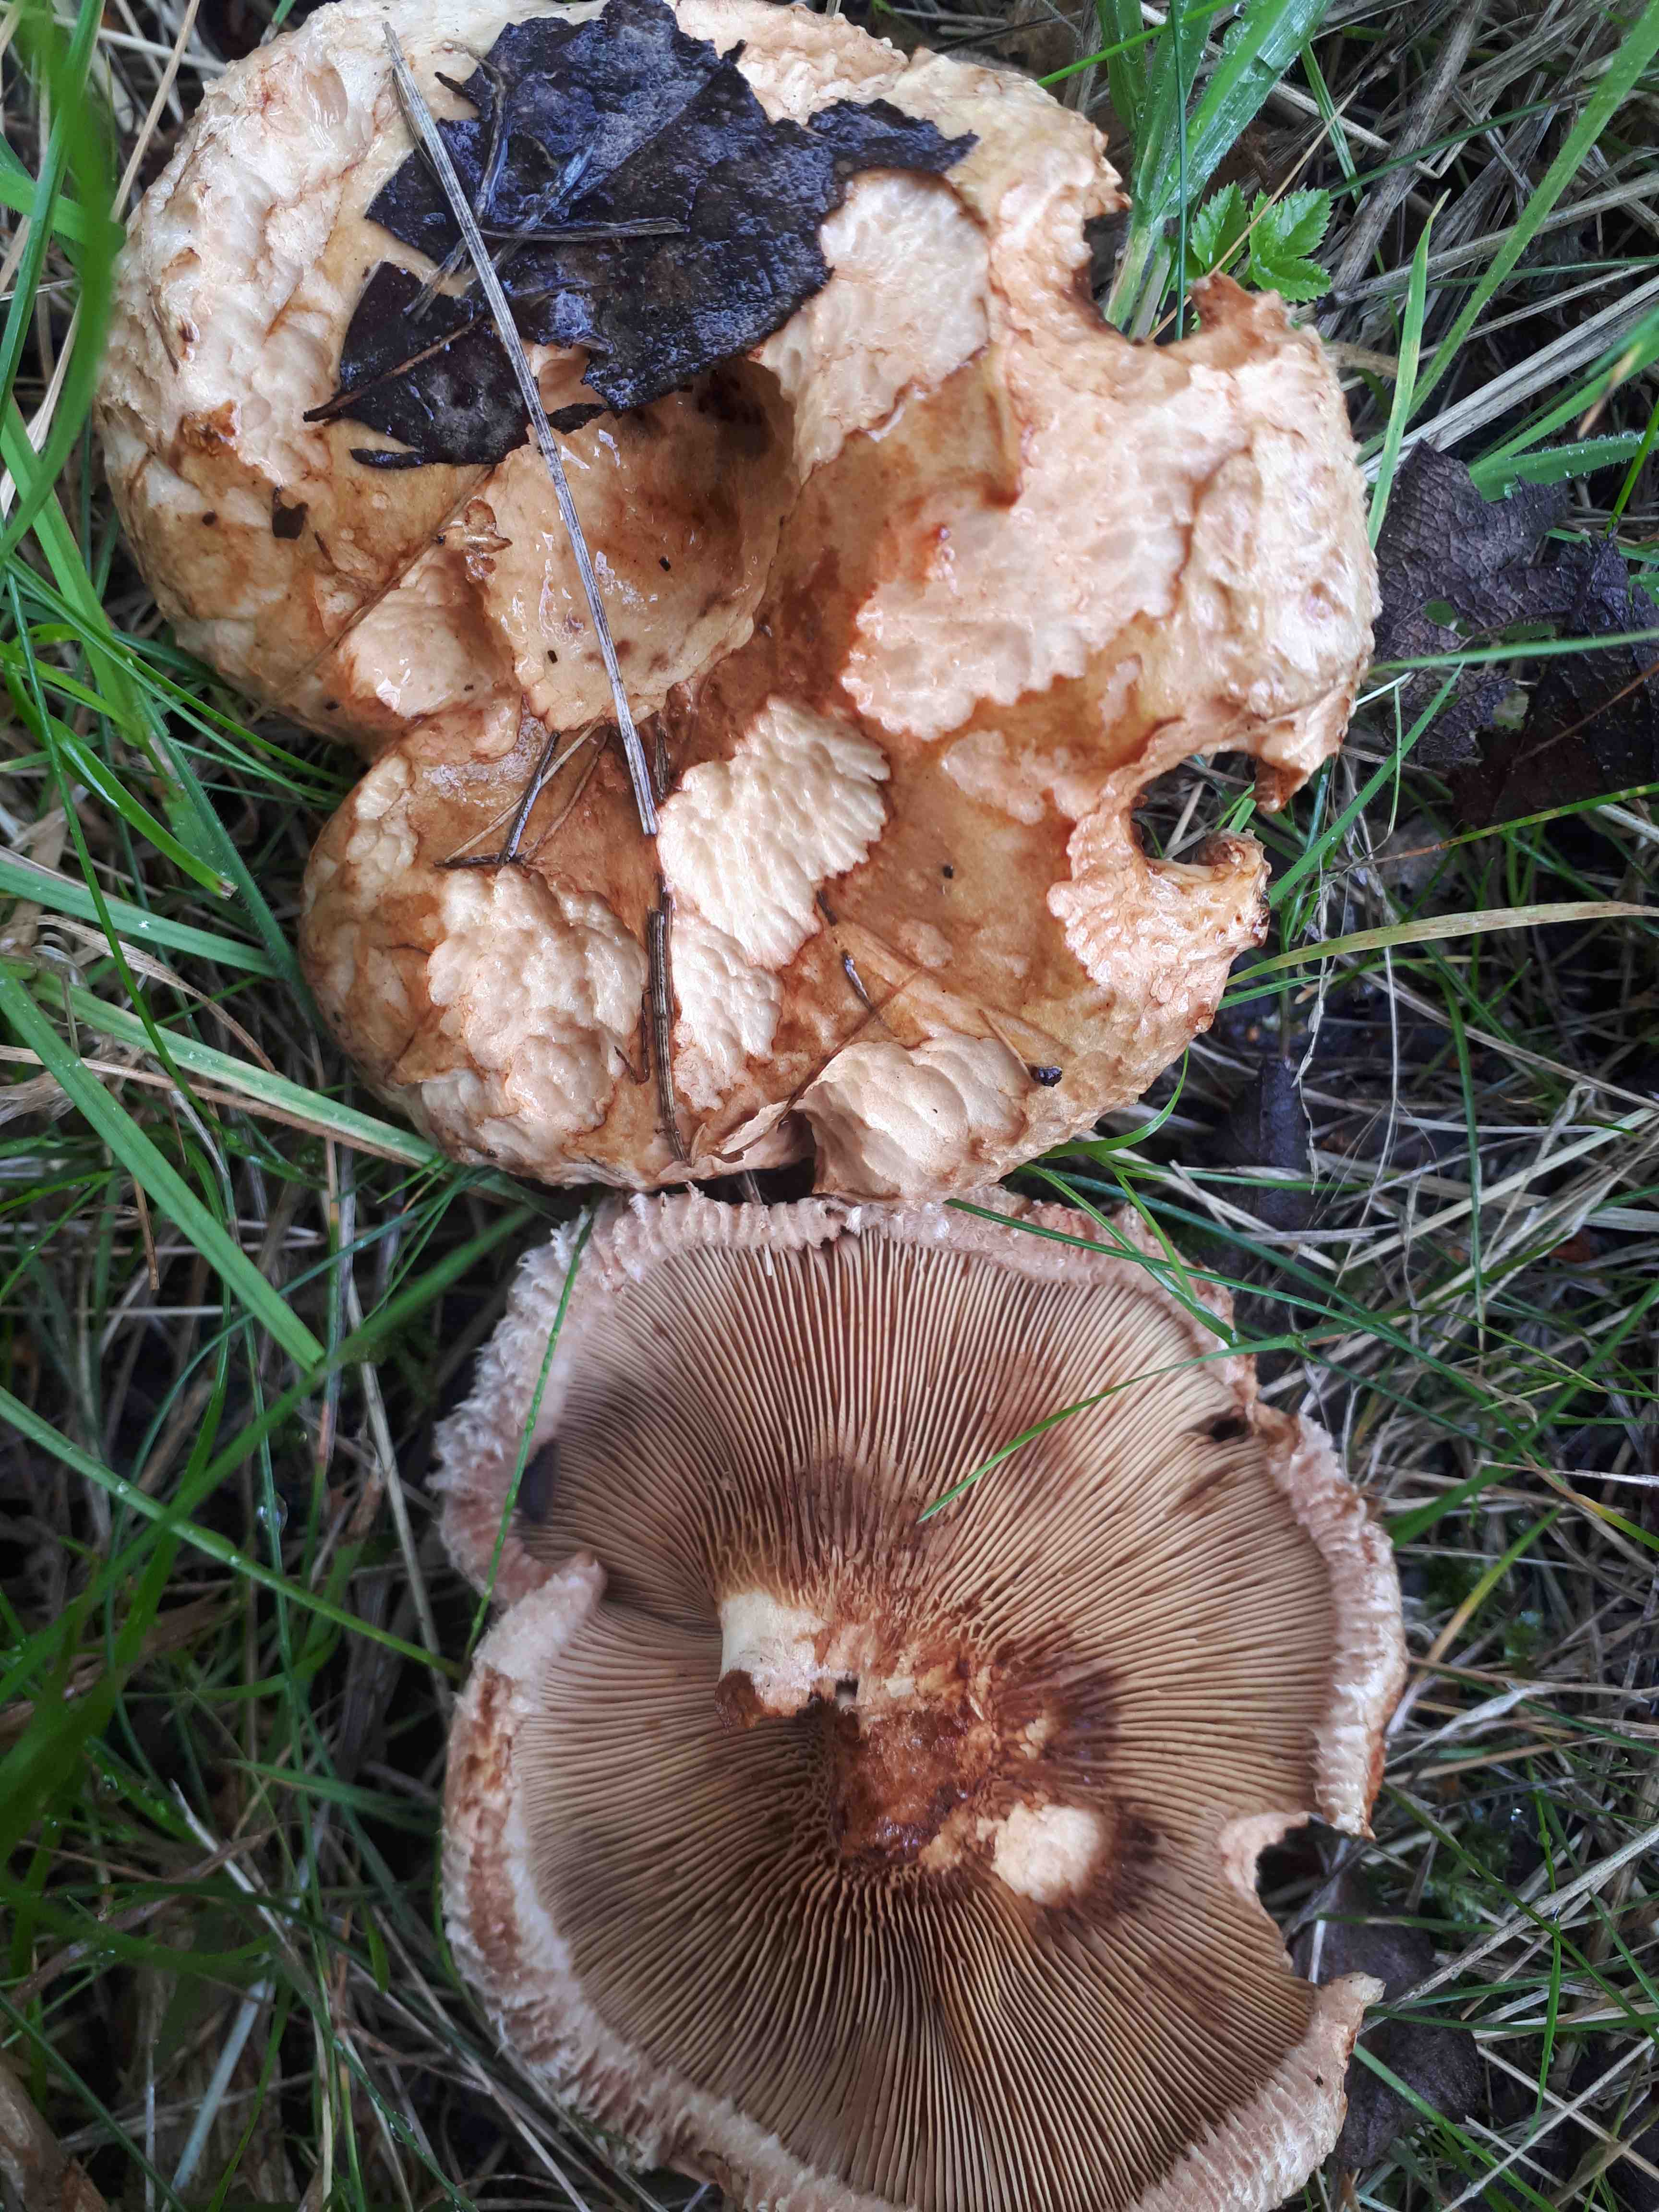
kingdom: Fungi
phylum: Basidiomycota
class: Agaricomycetes
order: Boletales
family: Paxillaceae
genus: Paxillus
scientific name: Paxillus
